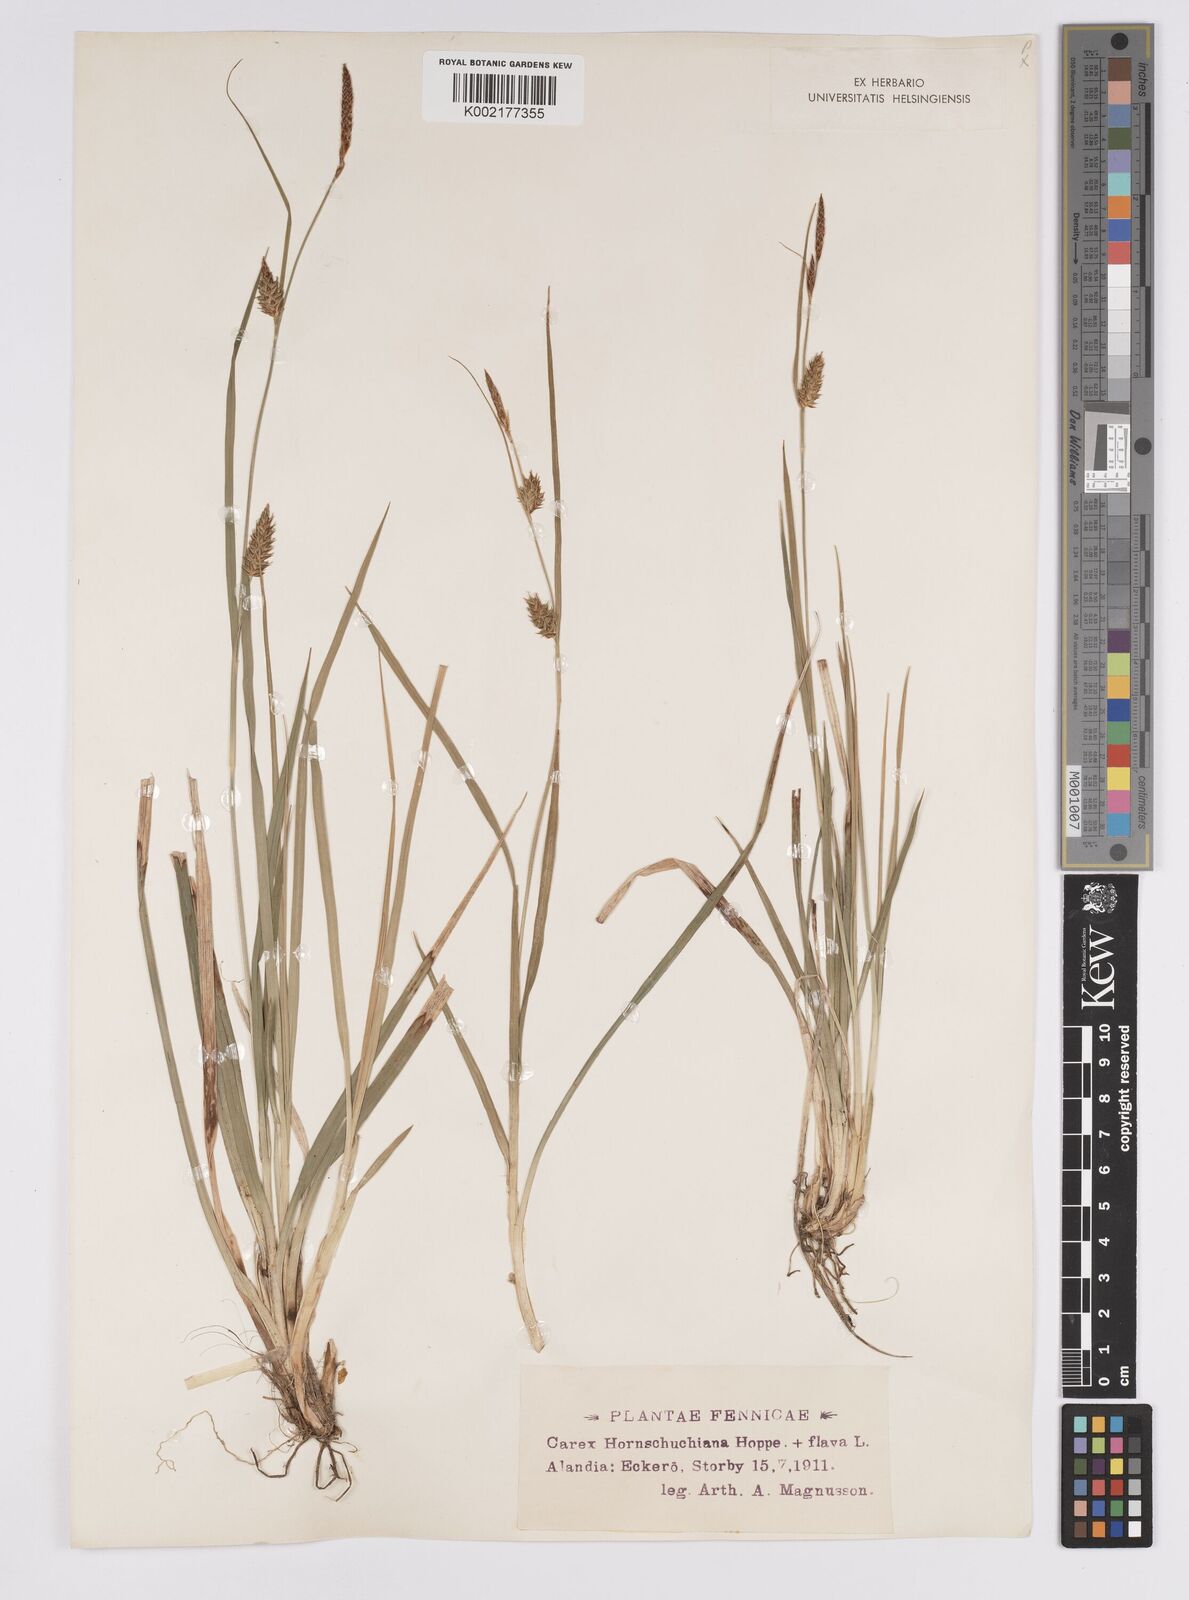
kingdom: Plantae
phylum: Tracheophyta
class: Liliopsida
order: Poales
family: Cyperaceae
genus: Carex
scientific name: Carex hostiana
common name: Tawny sedge
